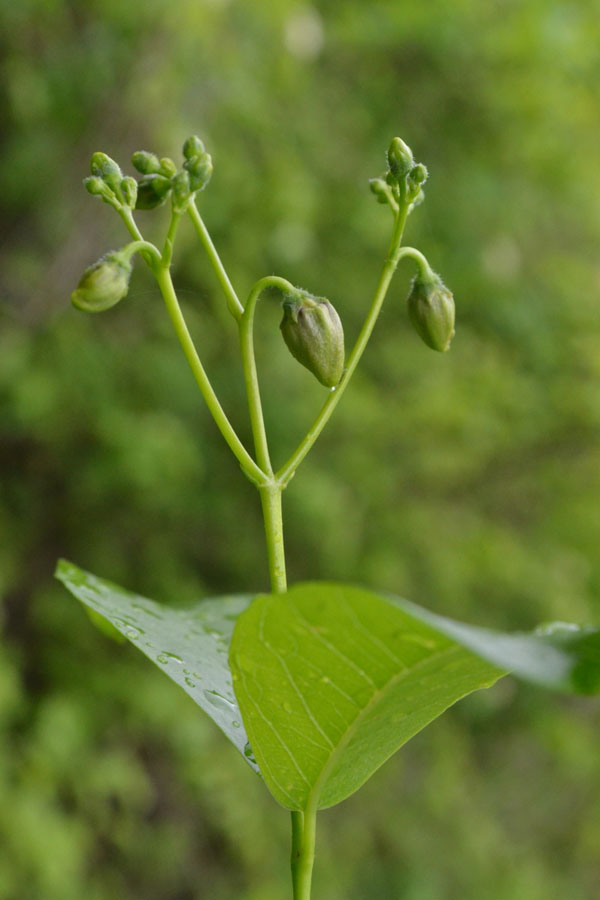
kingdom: Plantae
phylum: Tracheophyta
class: Magnoliopsida
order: Gentianales
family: Apocynaceae
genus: Periploca
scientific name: Periploca
